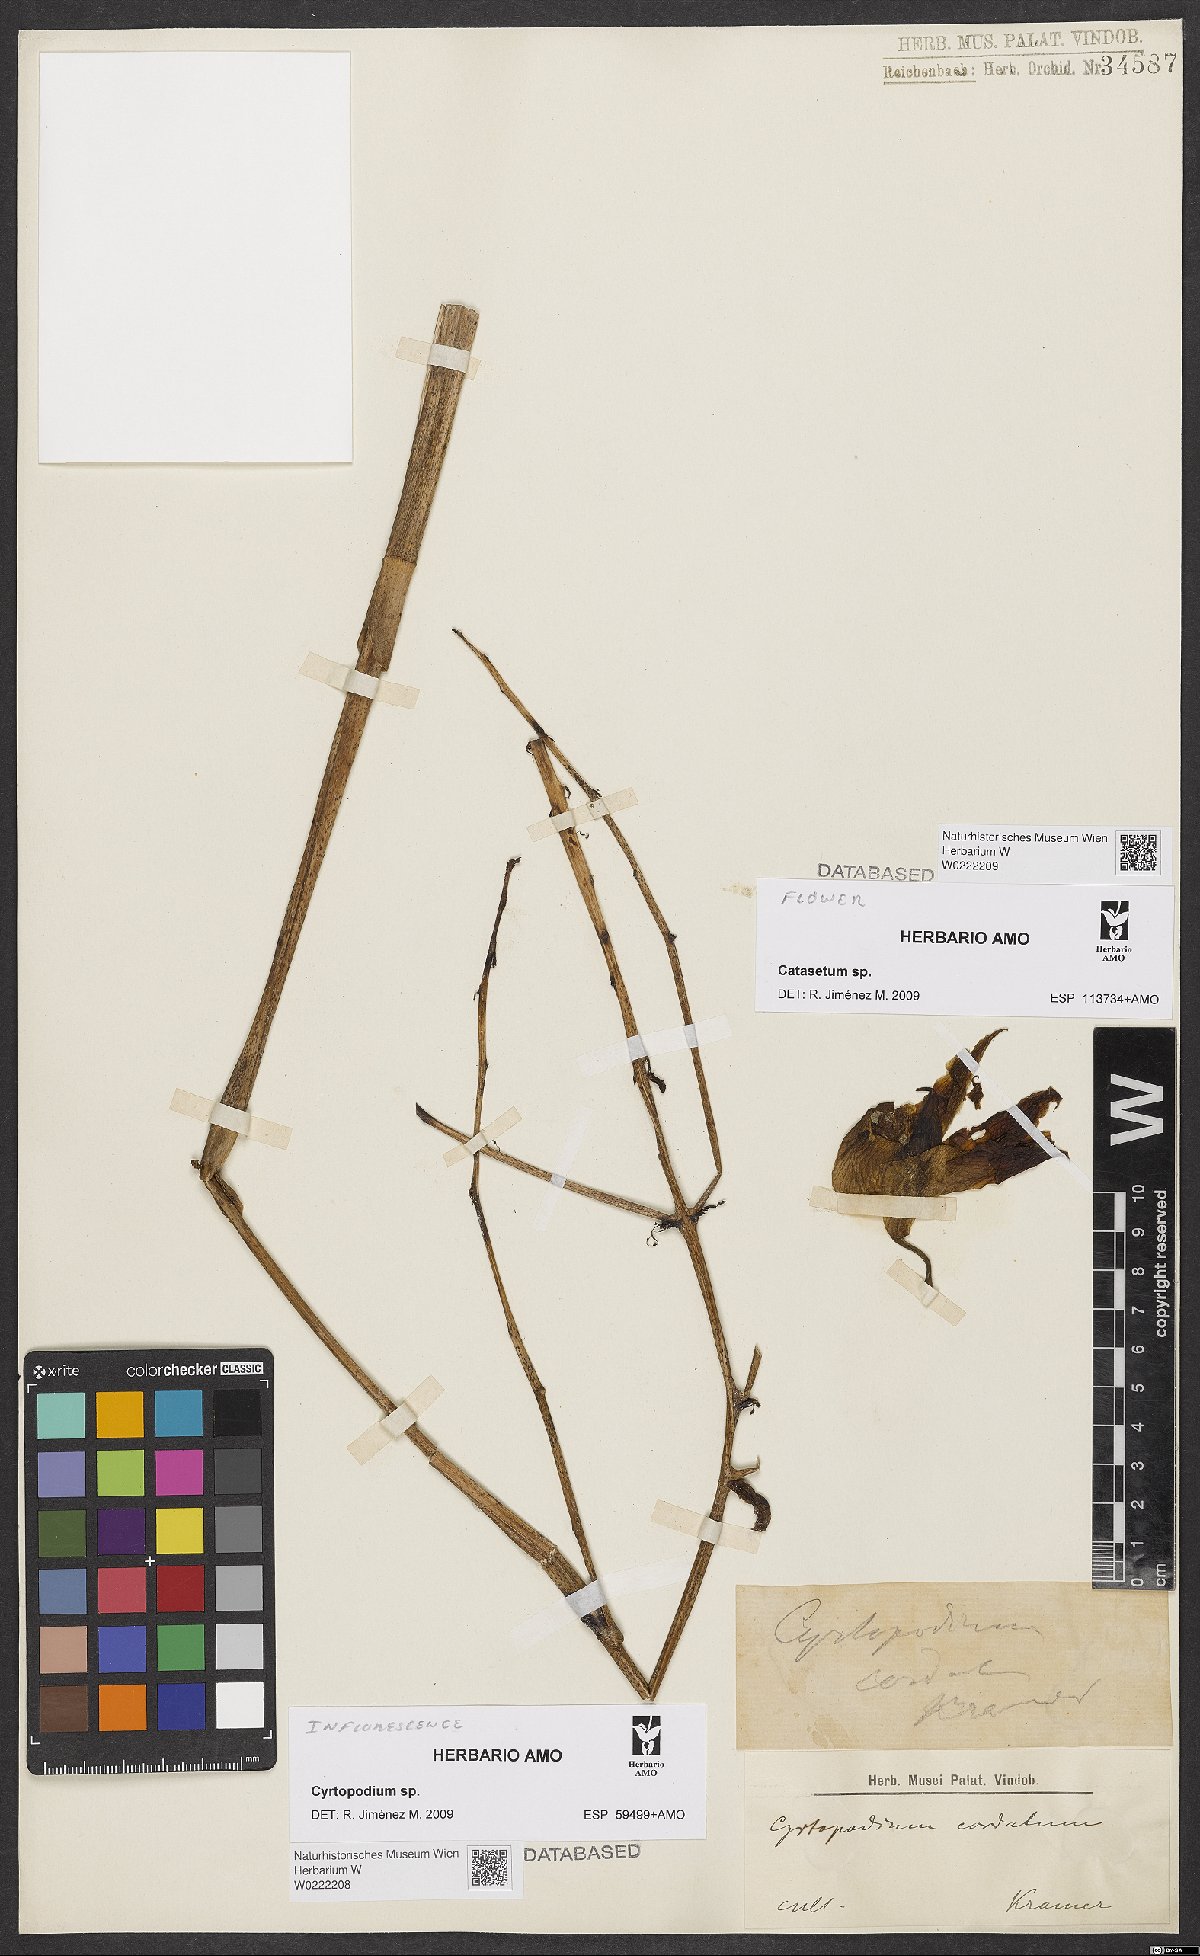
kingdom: Plantae
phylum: Tracheophyta
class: Liliopsida
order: Asparagales
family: Orchidaceae
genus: Cyrtopodium
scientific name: Cyrtopodium
